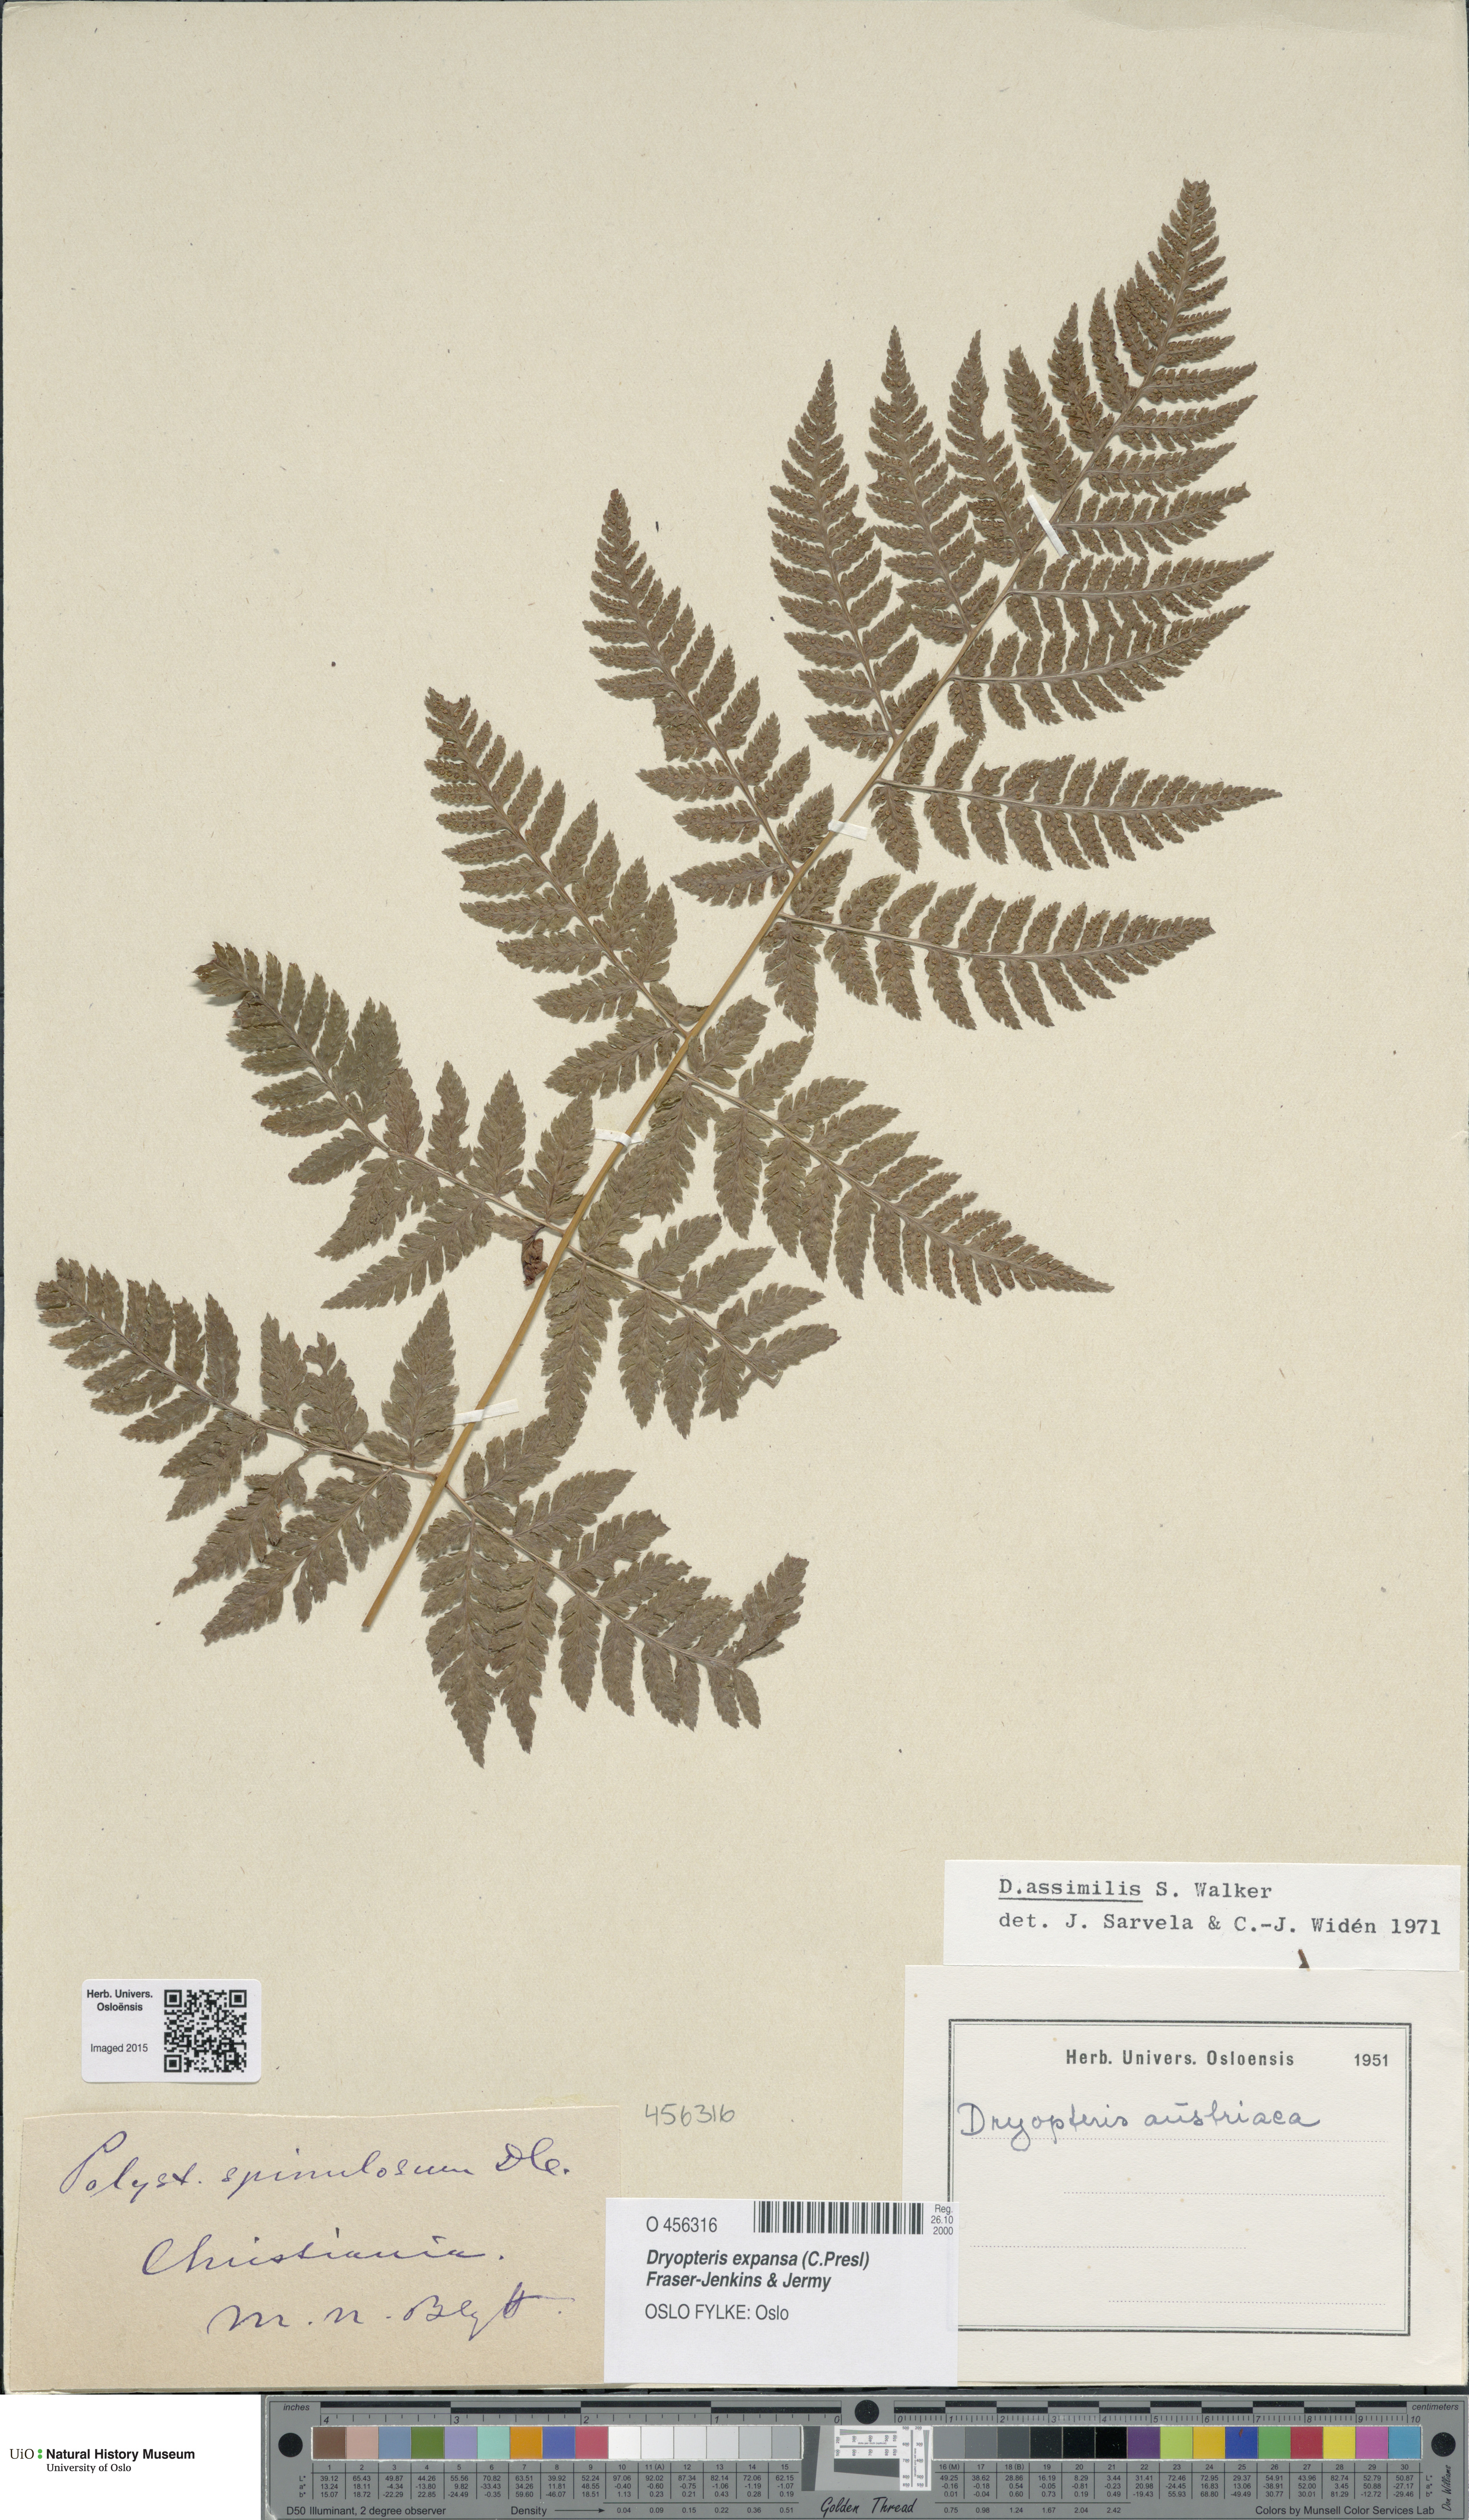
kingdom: Plantae
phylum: Tracheophyta
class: Polypodiopsida
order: Polypodiales
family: Dryopteridaceae
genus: Dryopteris
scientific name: Dryopteris expansa
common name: Northern buckler fern
